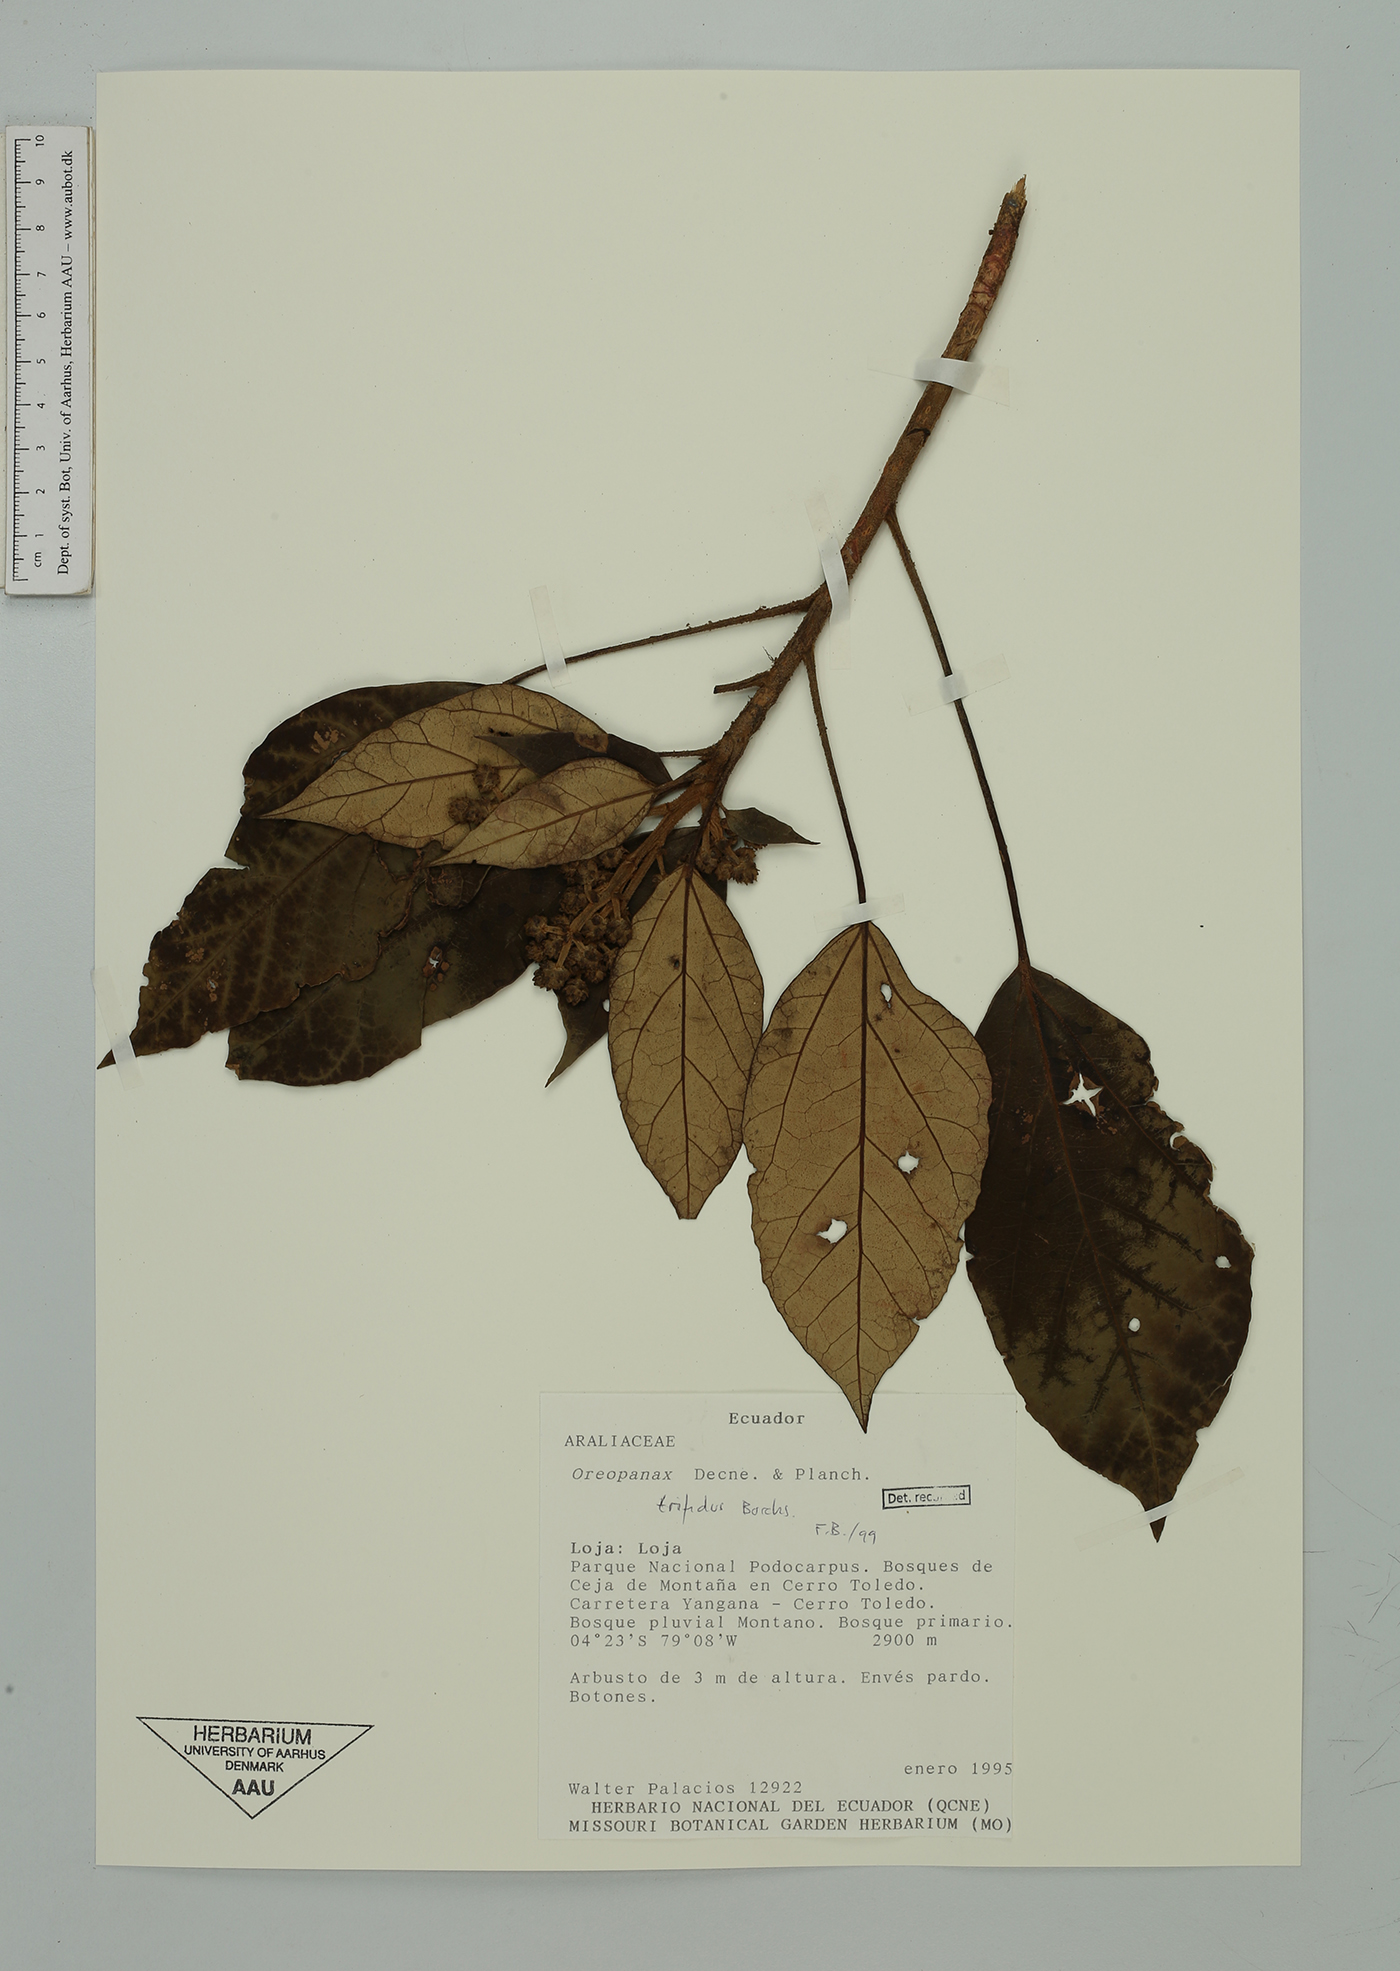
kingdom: Plantae
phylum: Tracheophyta
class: Magnoliopsida
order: Apiales
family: Araliaceae
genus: Oreopanax
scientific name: Oreopanax trifidus
